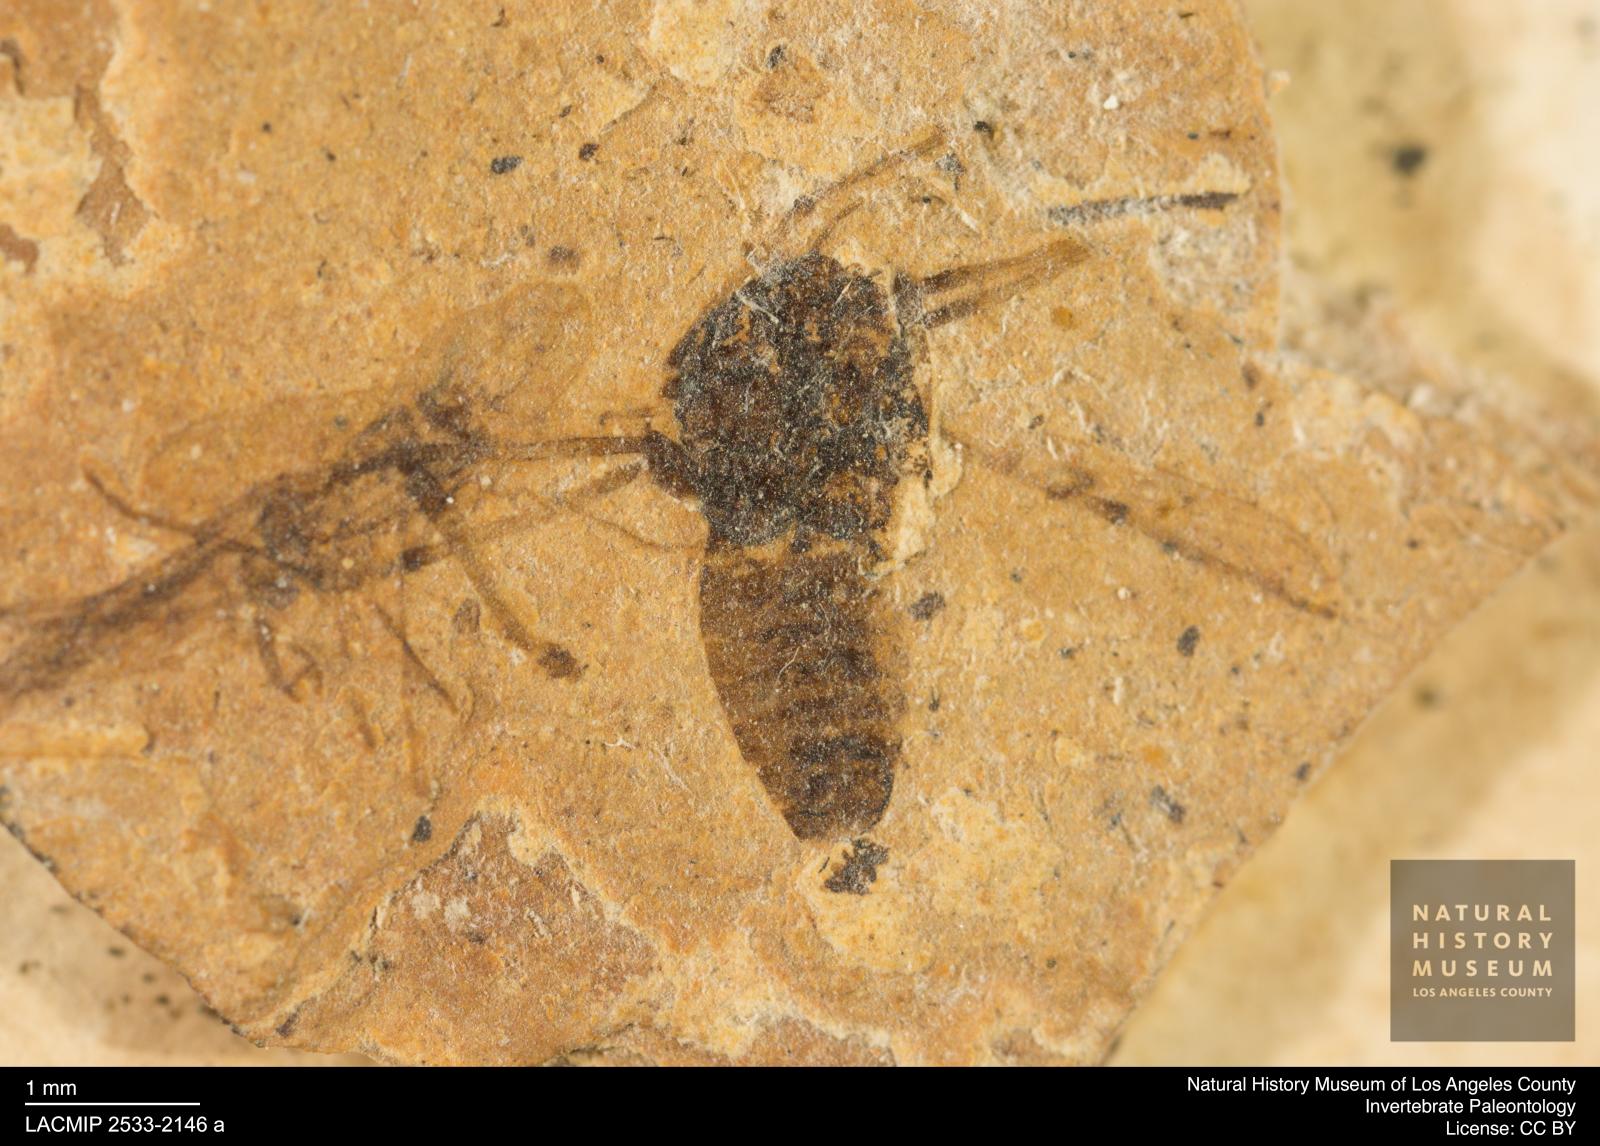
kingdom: Animalia
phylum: Arthropoda
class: Insecta
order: Diptera
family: Chironomidae
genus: Tanypus
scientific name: Tanypus dorminans
